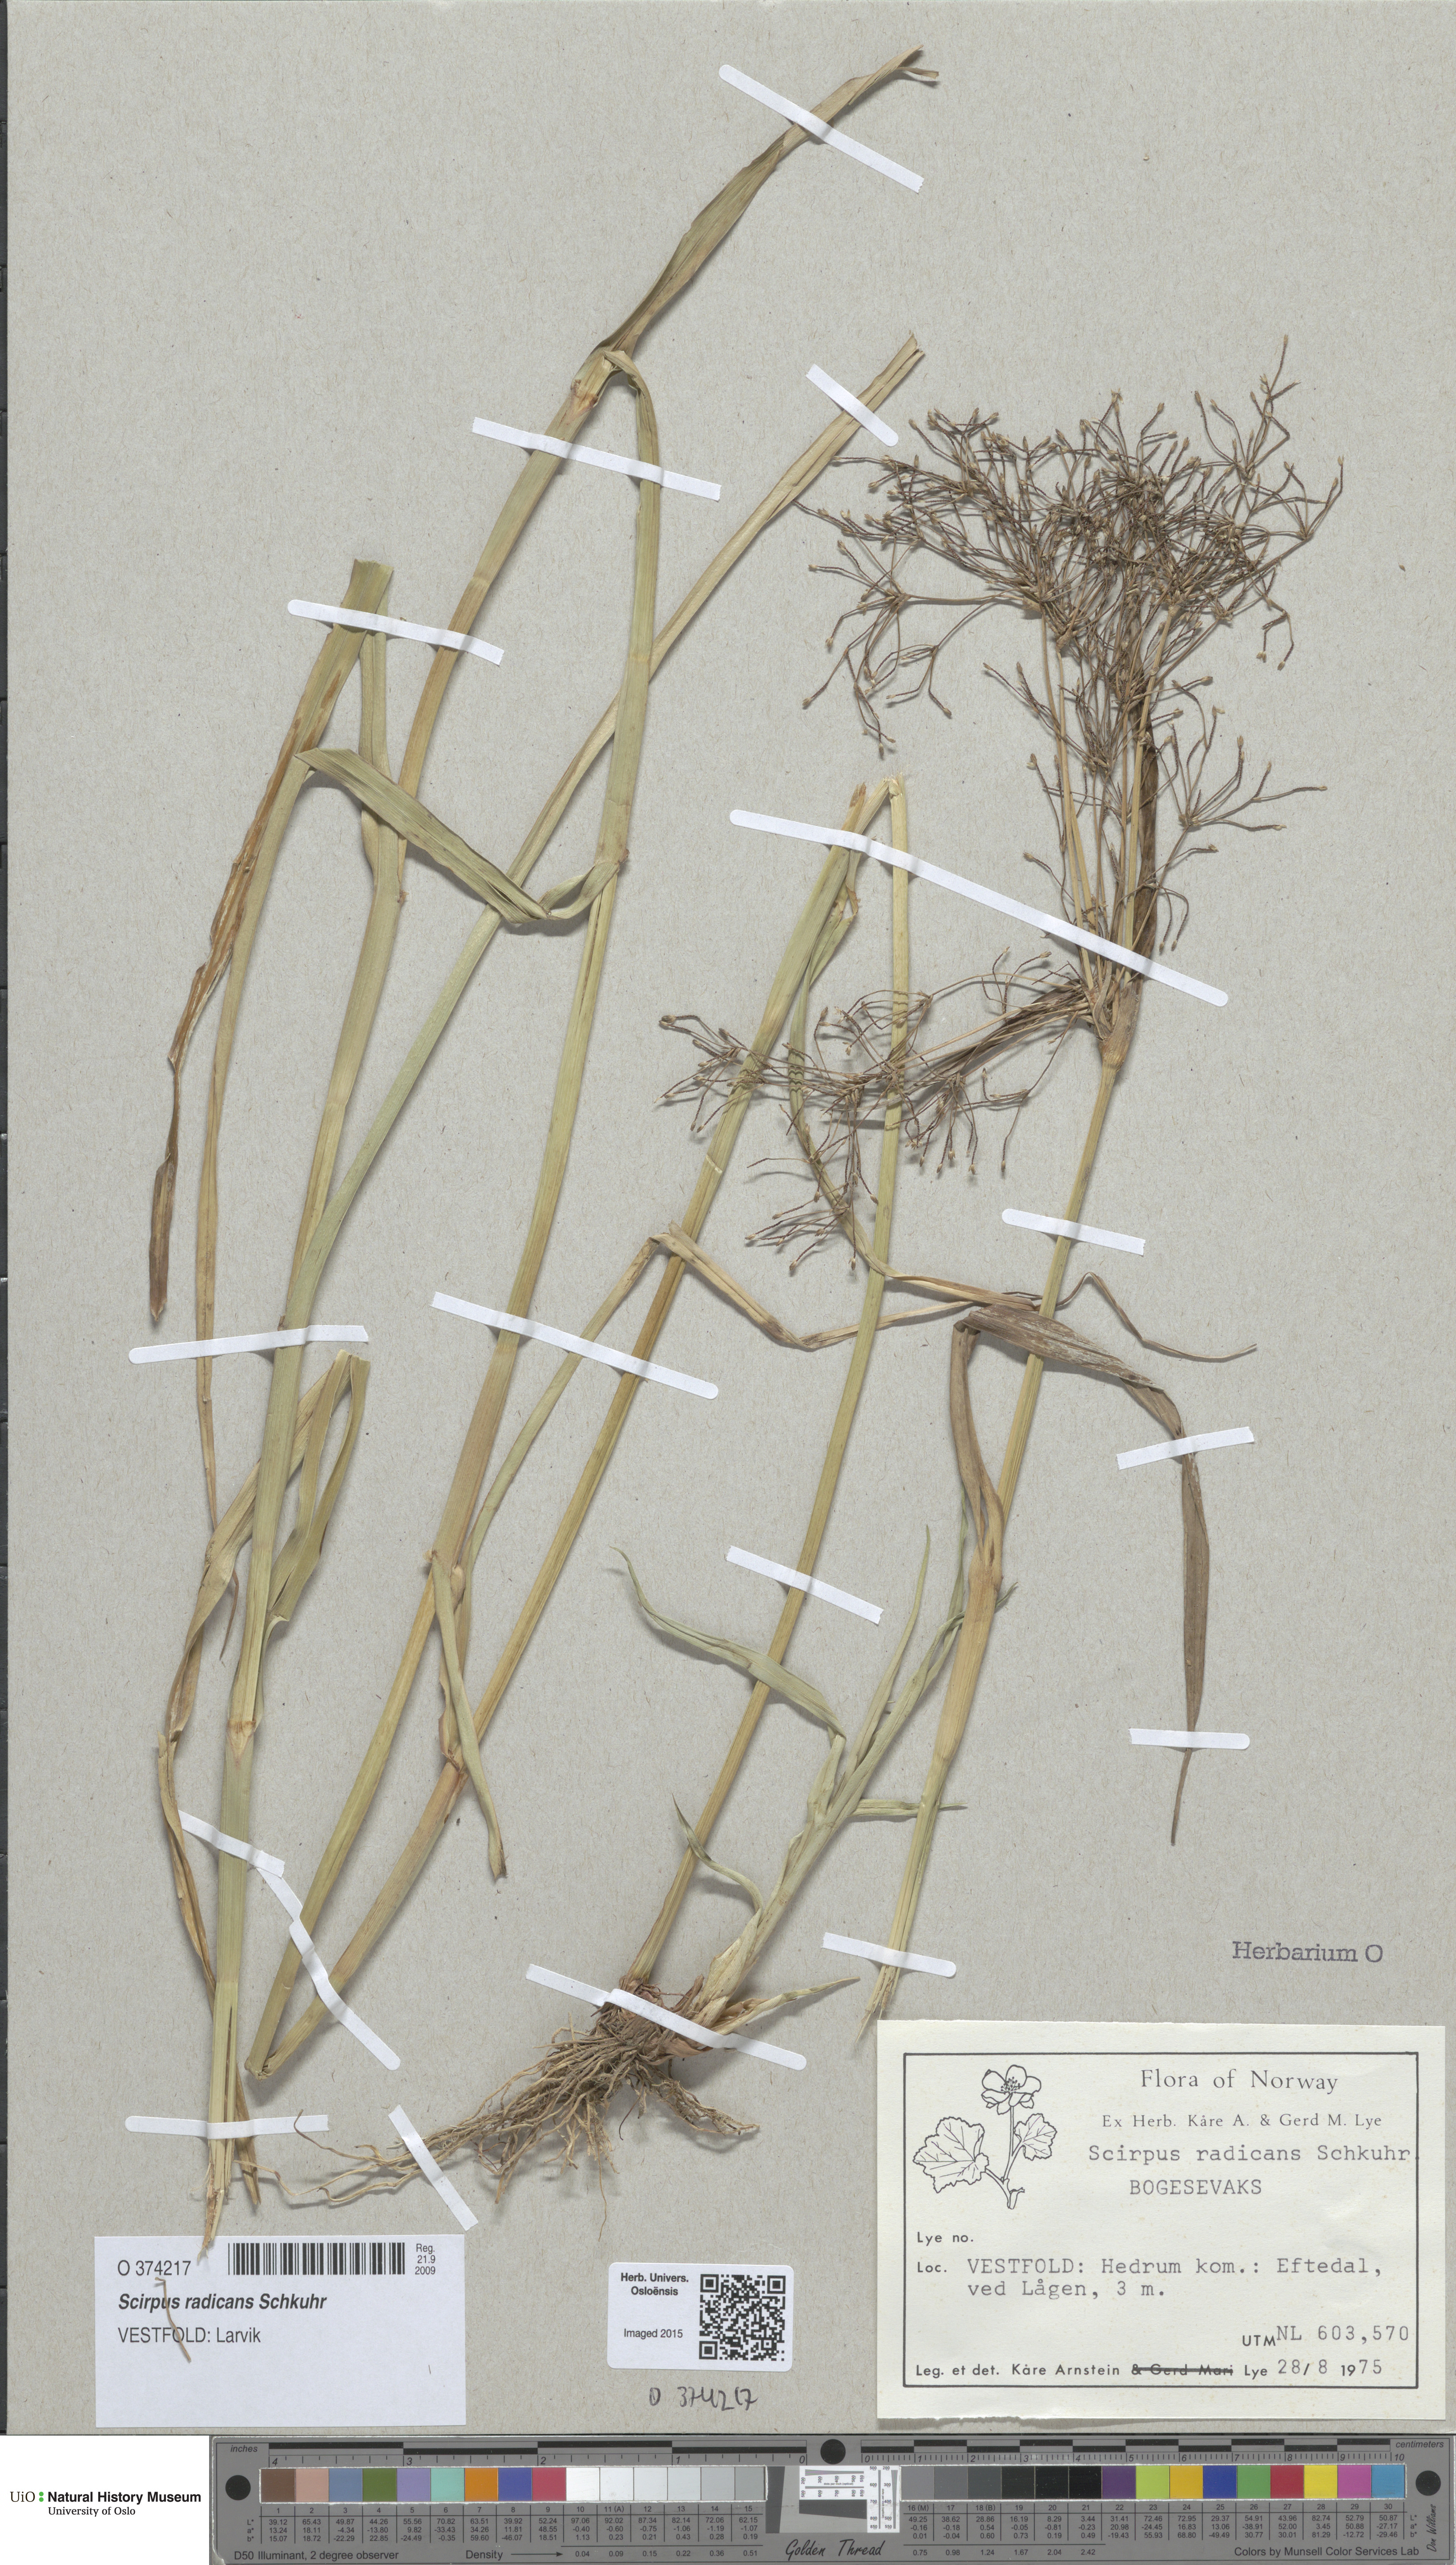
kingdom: Plantae
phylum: Tracheophyta
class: Liliopsida
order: Poales
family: Cyperaceae
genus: Scirpus
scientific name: Scirpus radicans
